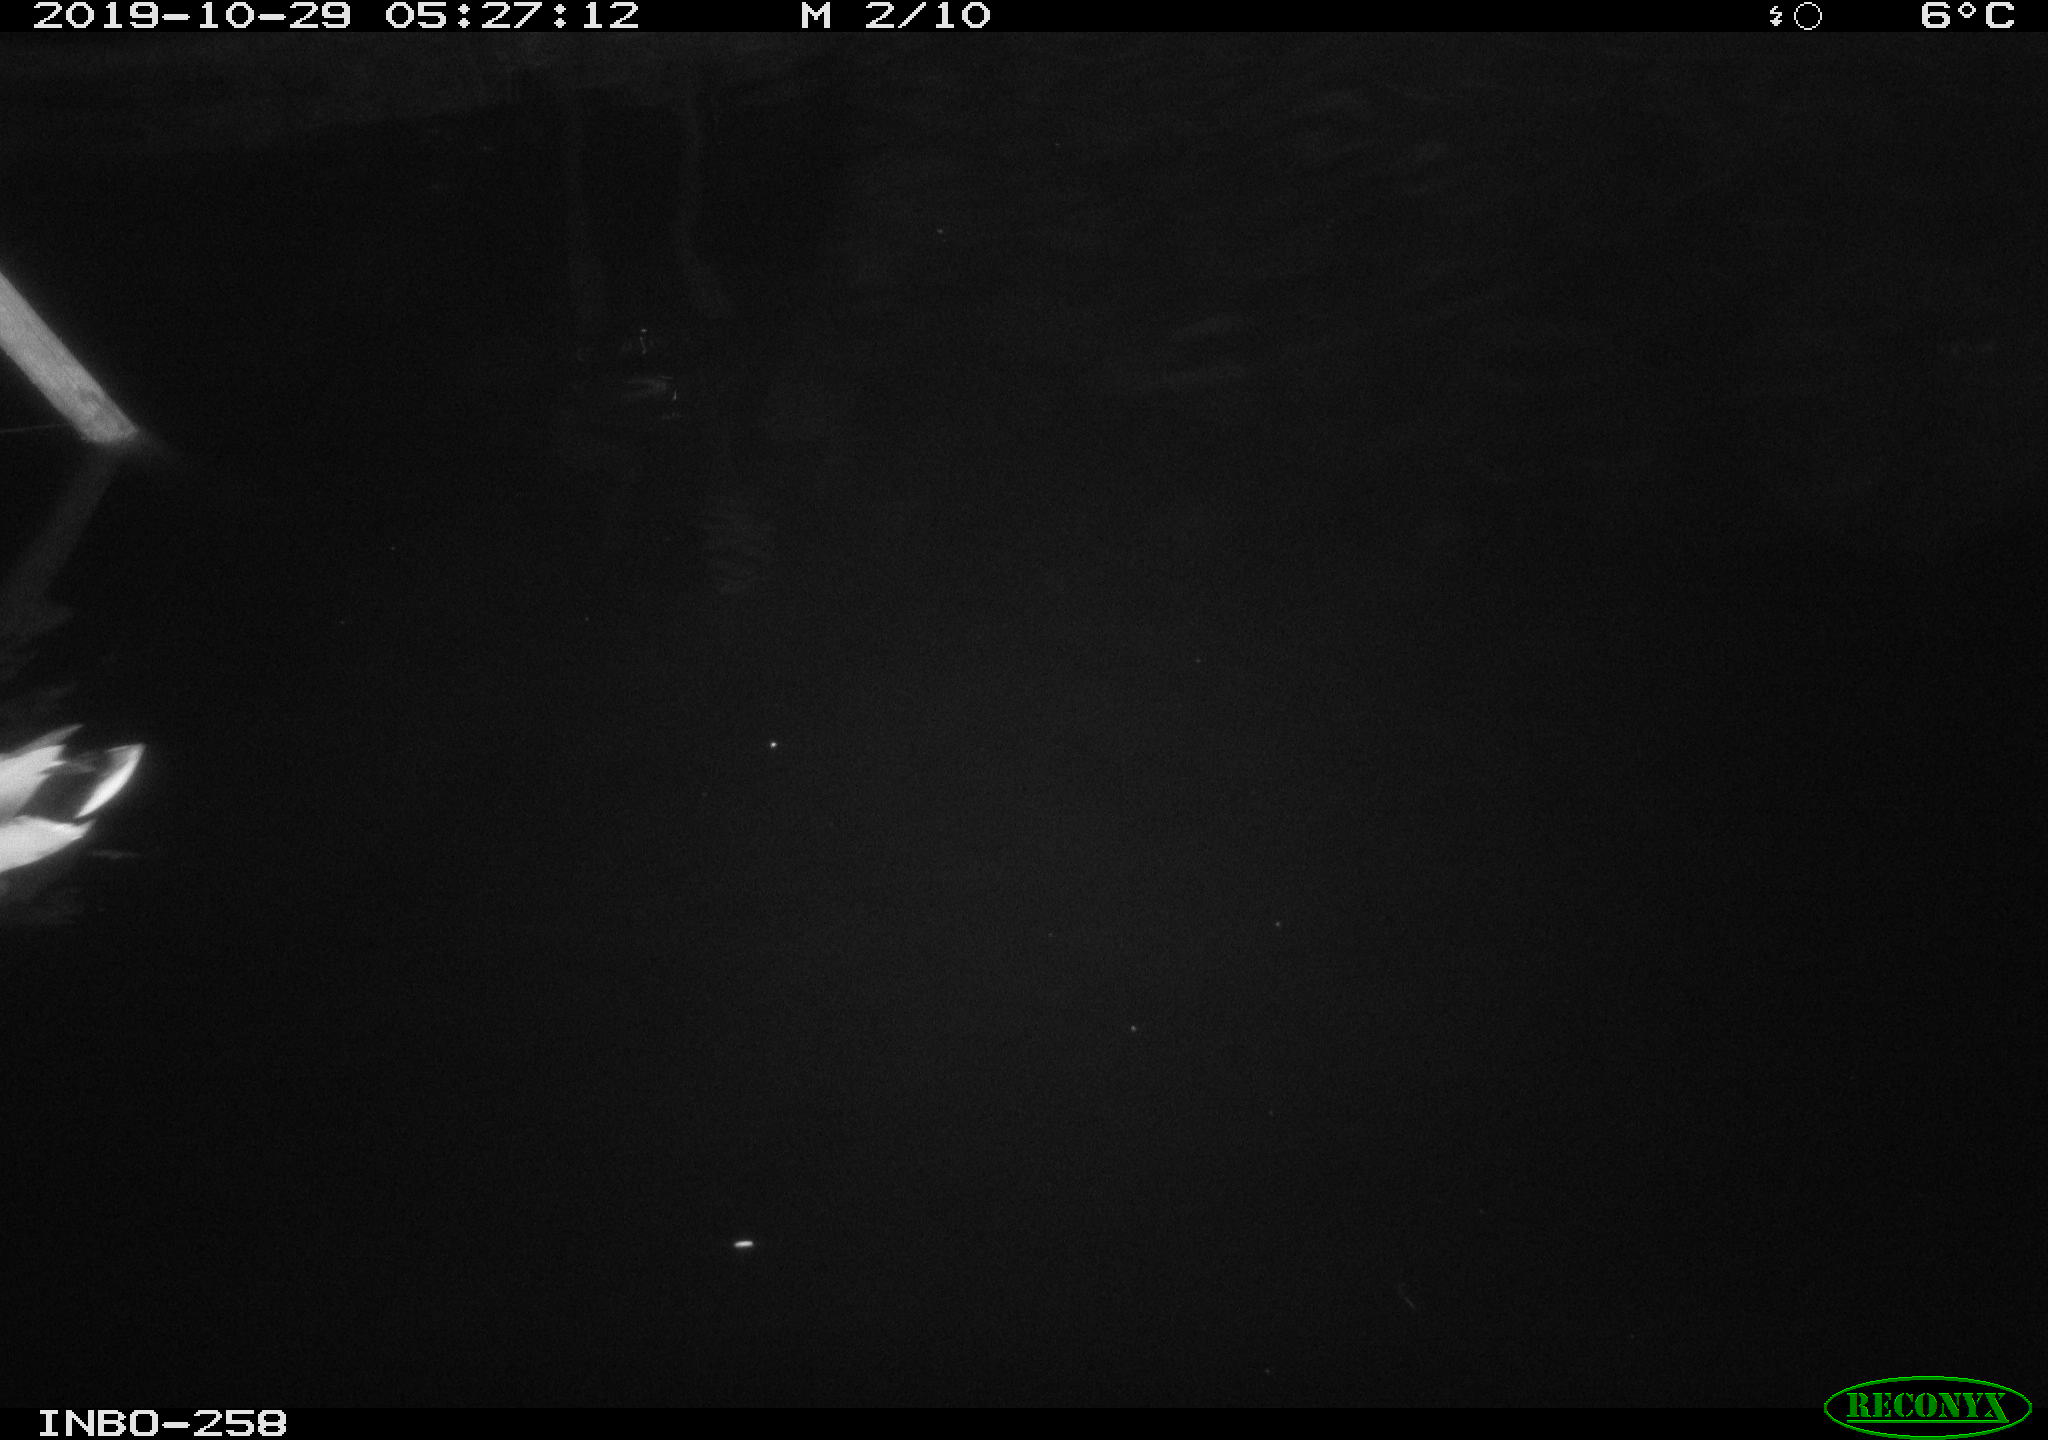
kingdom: Animalia
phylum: Chordata
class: Aves
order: Anseriformes
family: Anatidae
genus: Anas
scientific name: Anas platyrhynchos
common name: Mallard
